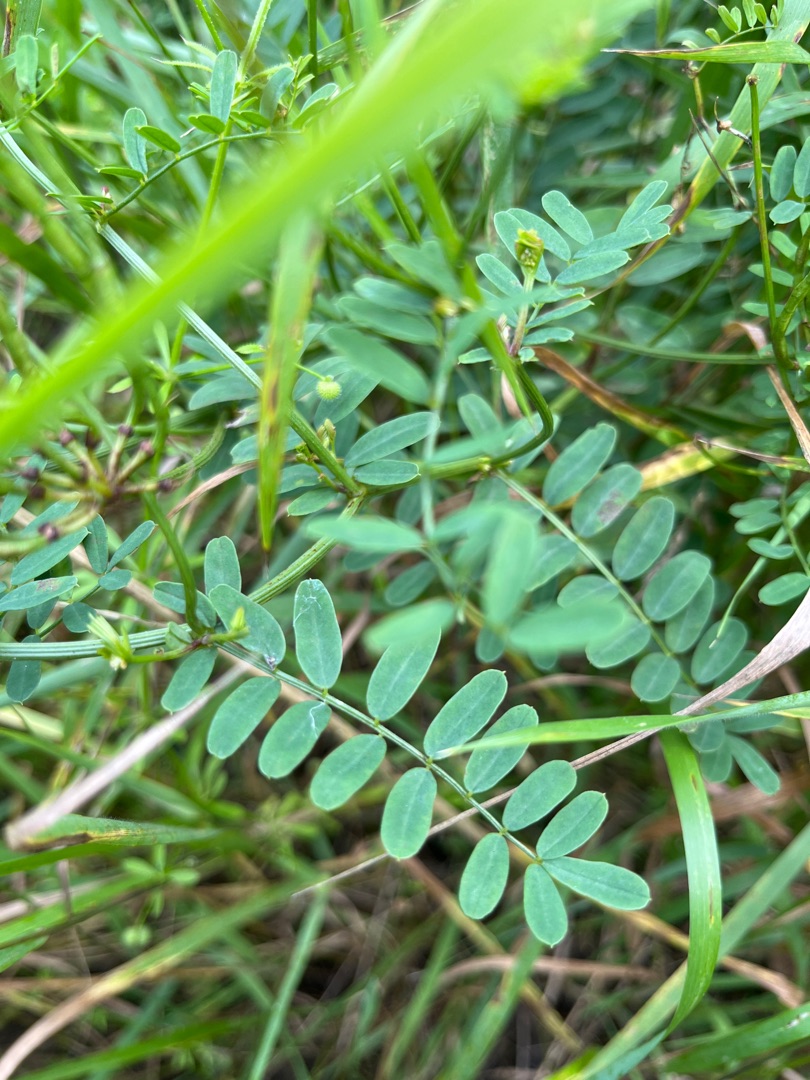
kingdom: Plantae
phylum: Tracheophyta
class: Magnoliopsida
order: Fabales
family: Fabaceae
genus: Coronilla
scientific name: Coronilla varia
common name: Giftig kronvikke
